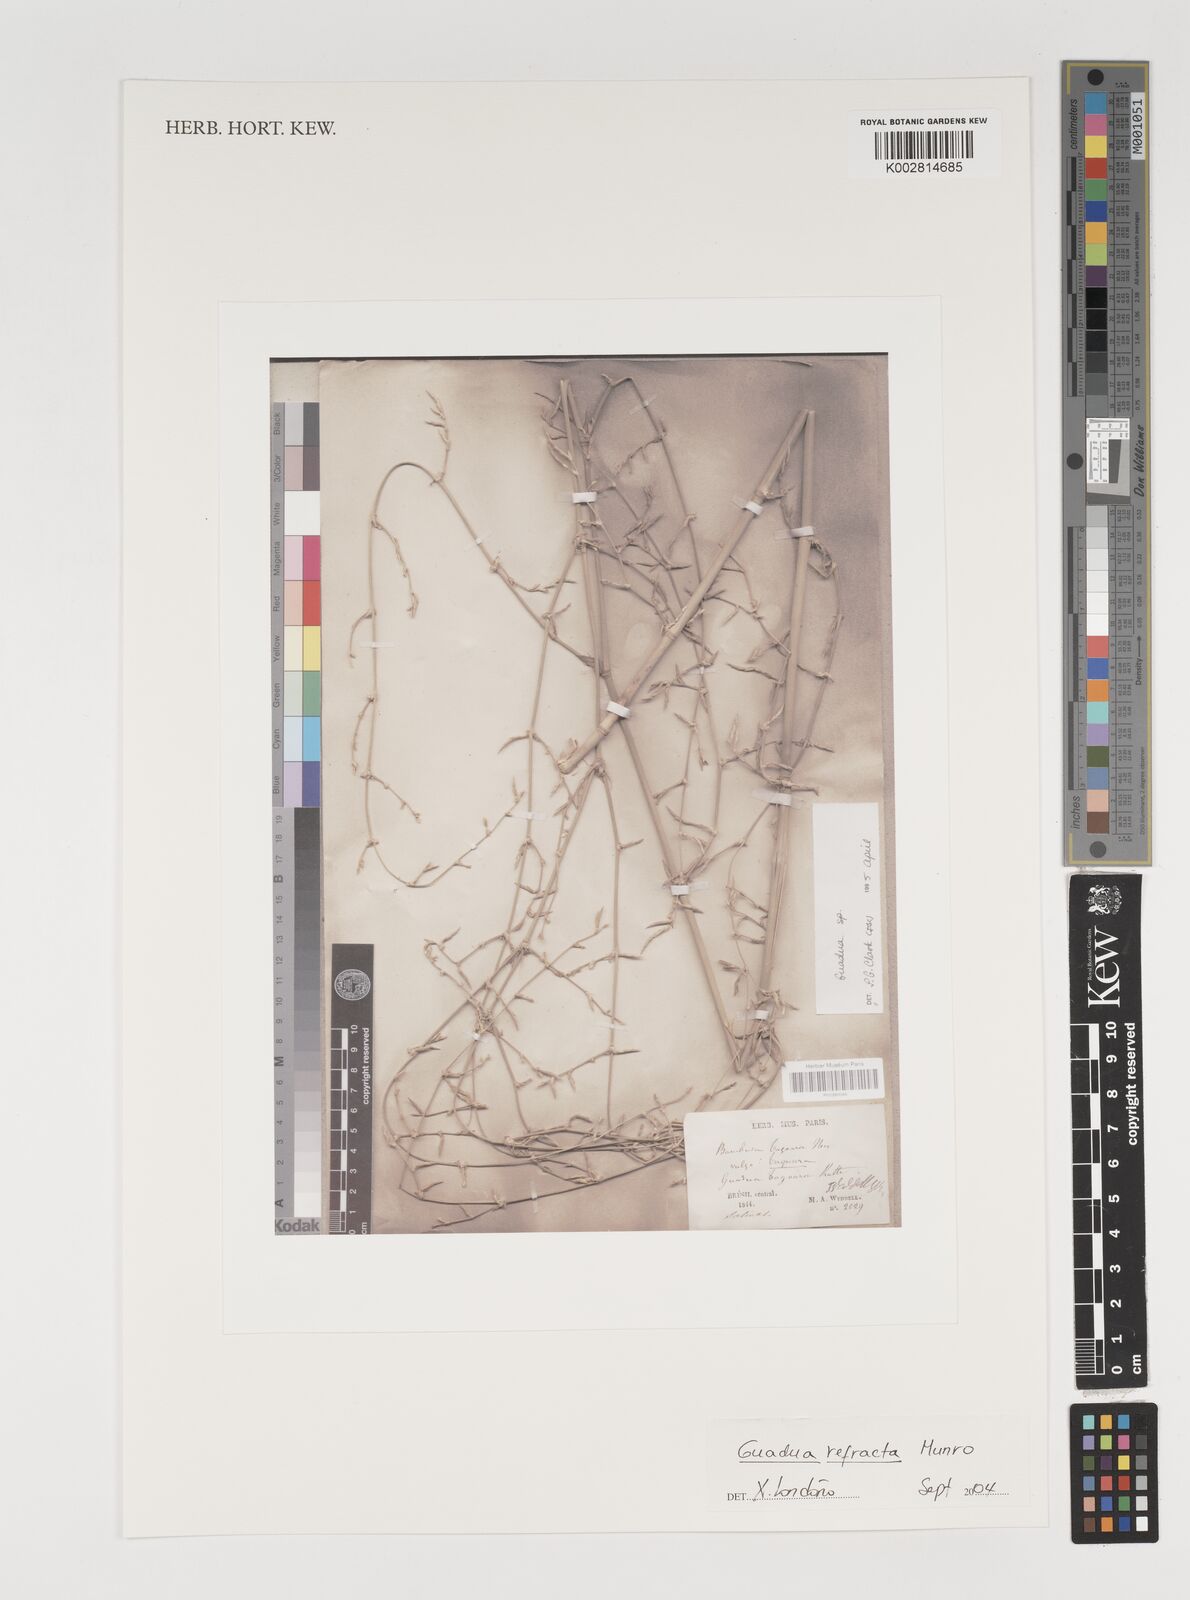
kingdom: Plantae
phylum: Tracheophyta
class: Liliopsida
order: Poales
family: Poaceae
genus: Guadua
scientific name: Guadua refracta
